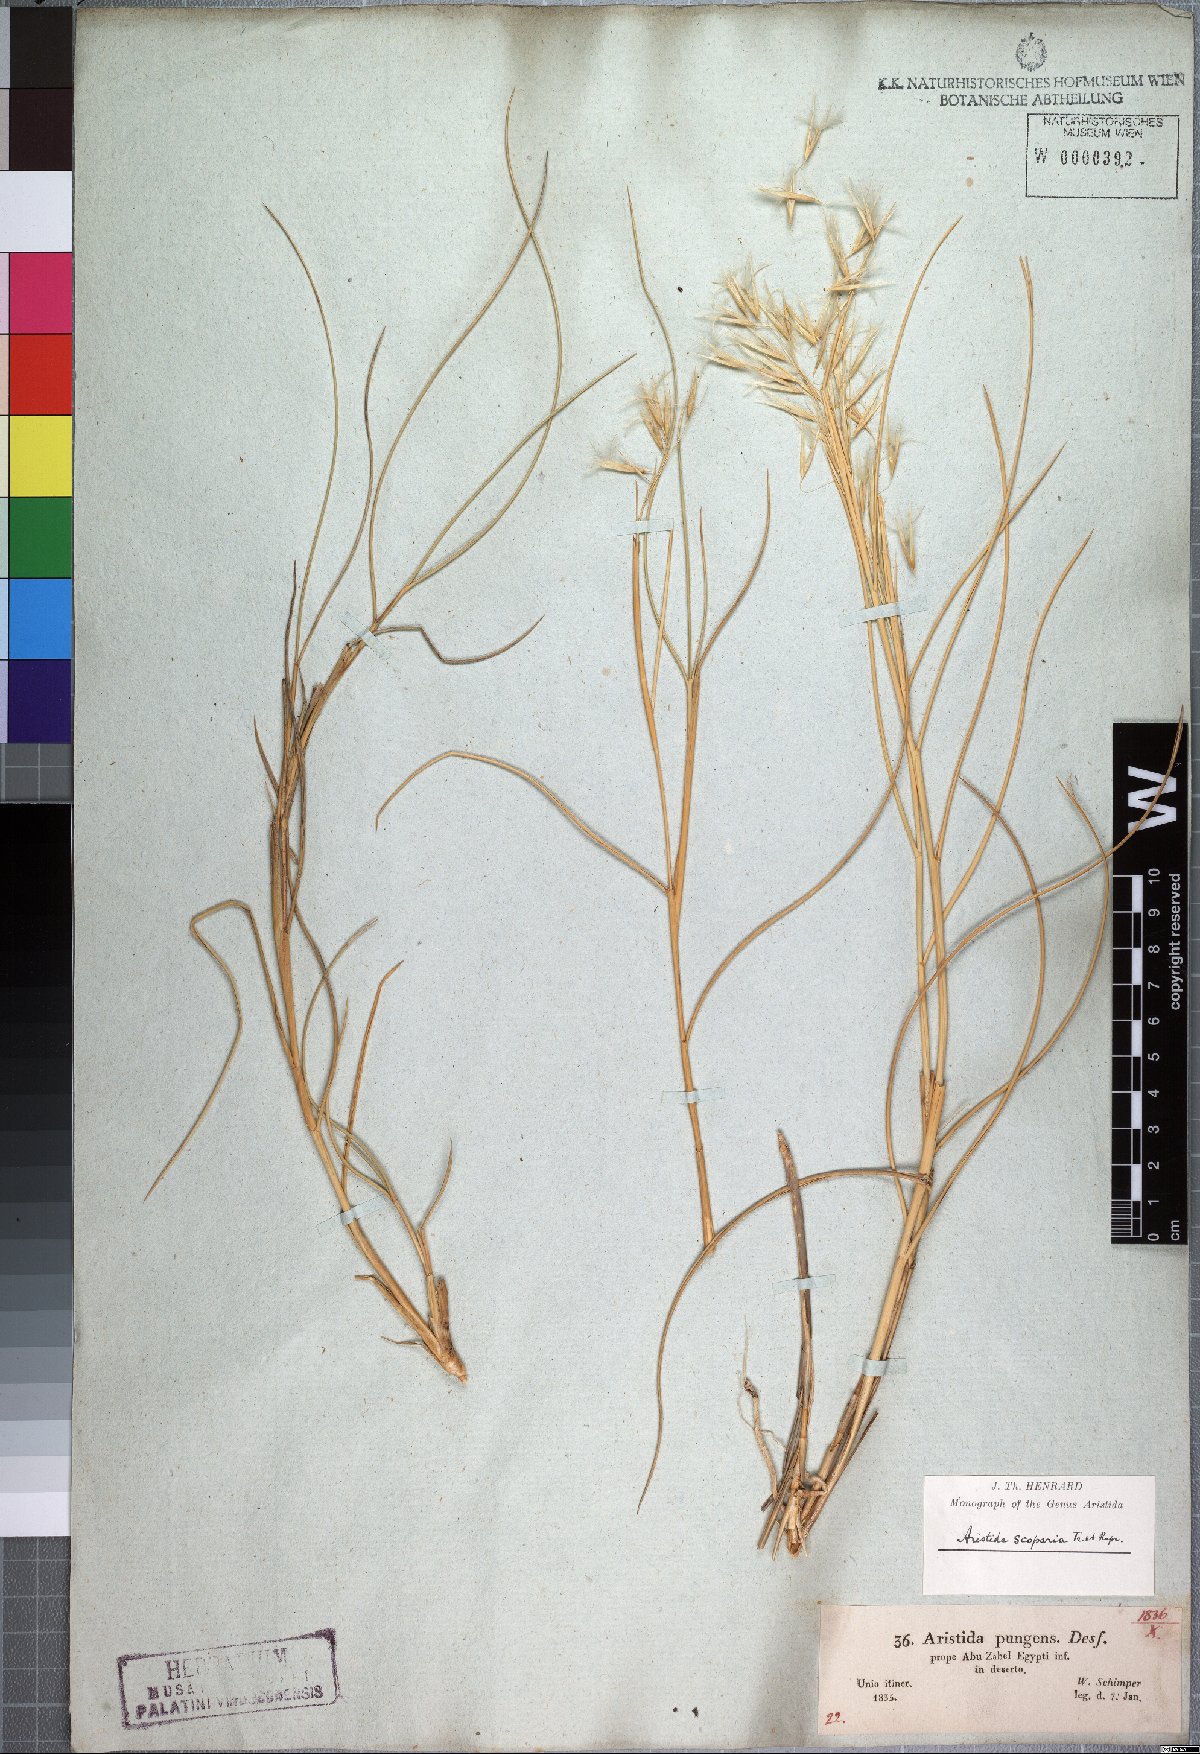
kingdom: Plantae
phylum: Tracheophyta
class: Liliopsida
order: Poales
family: Poaceae
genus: Stipagrostis
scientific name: Stipagrostis scoparia
